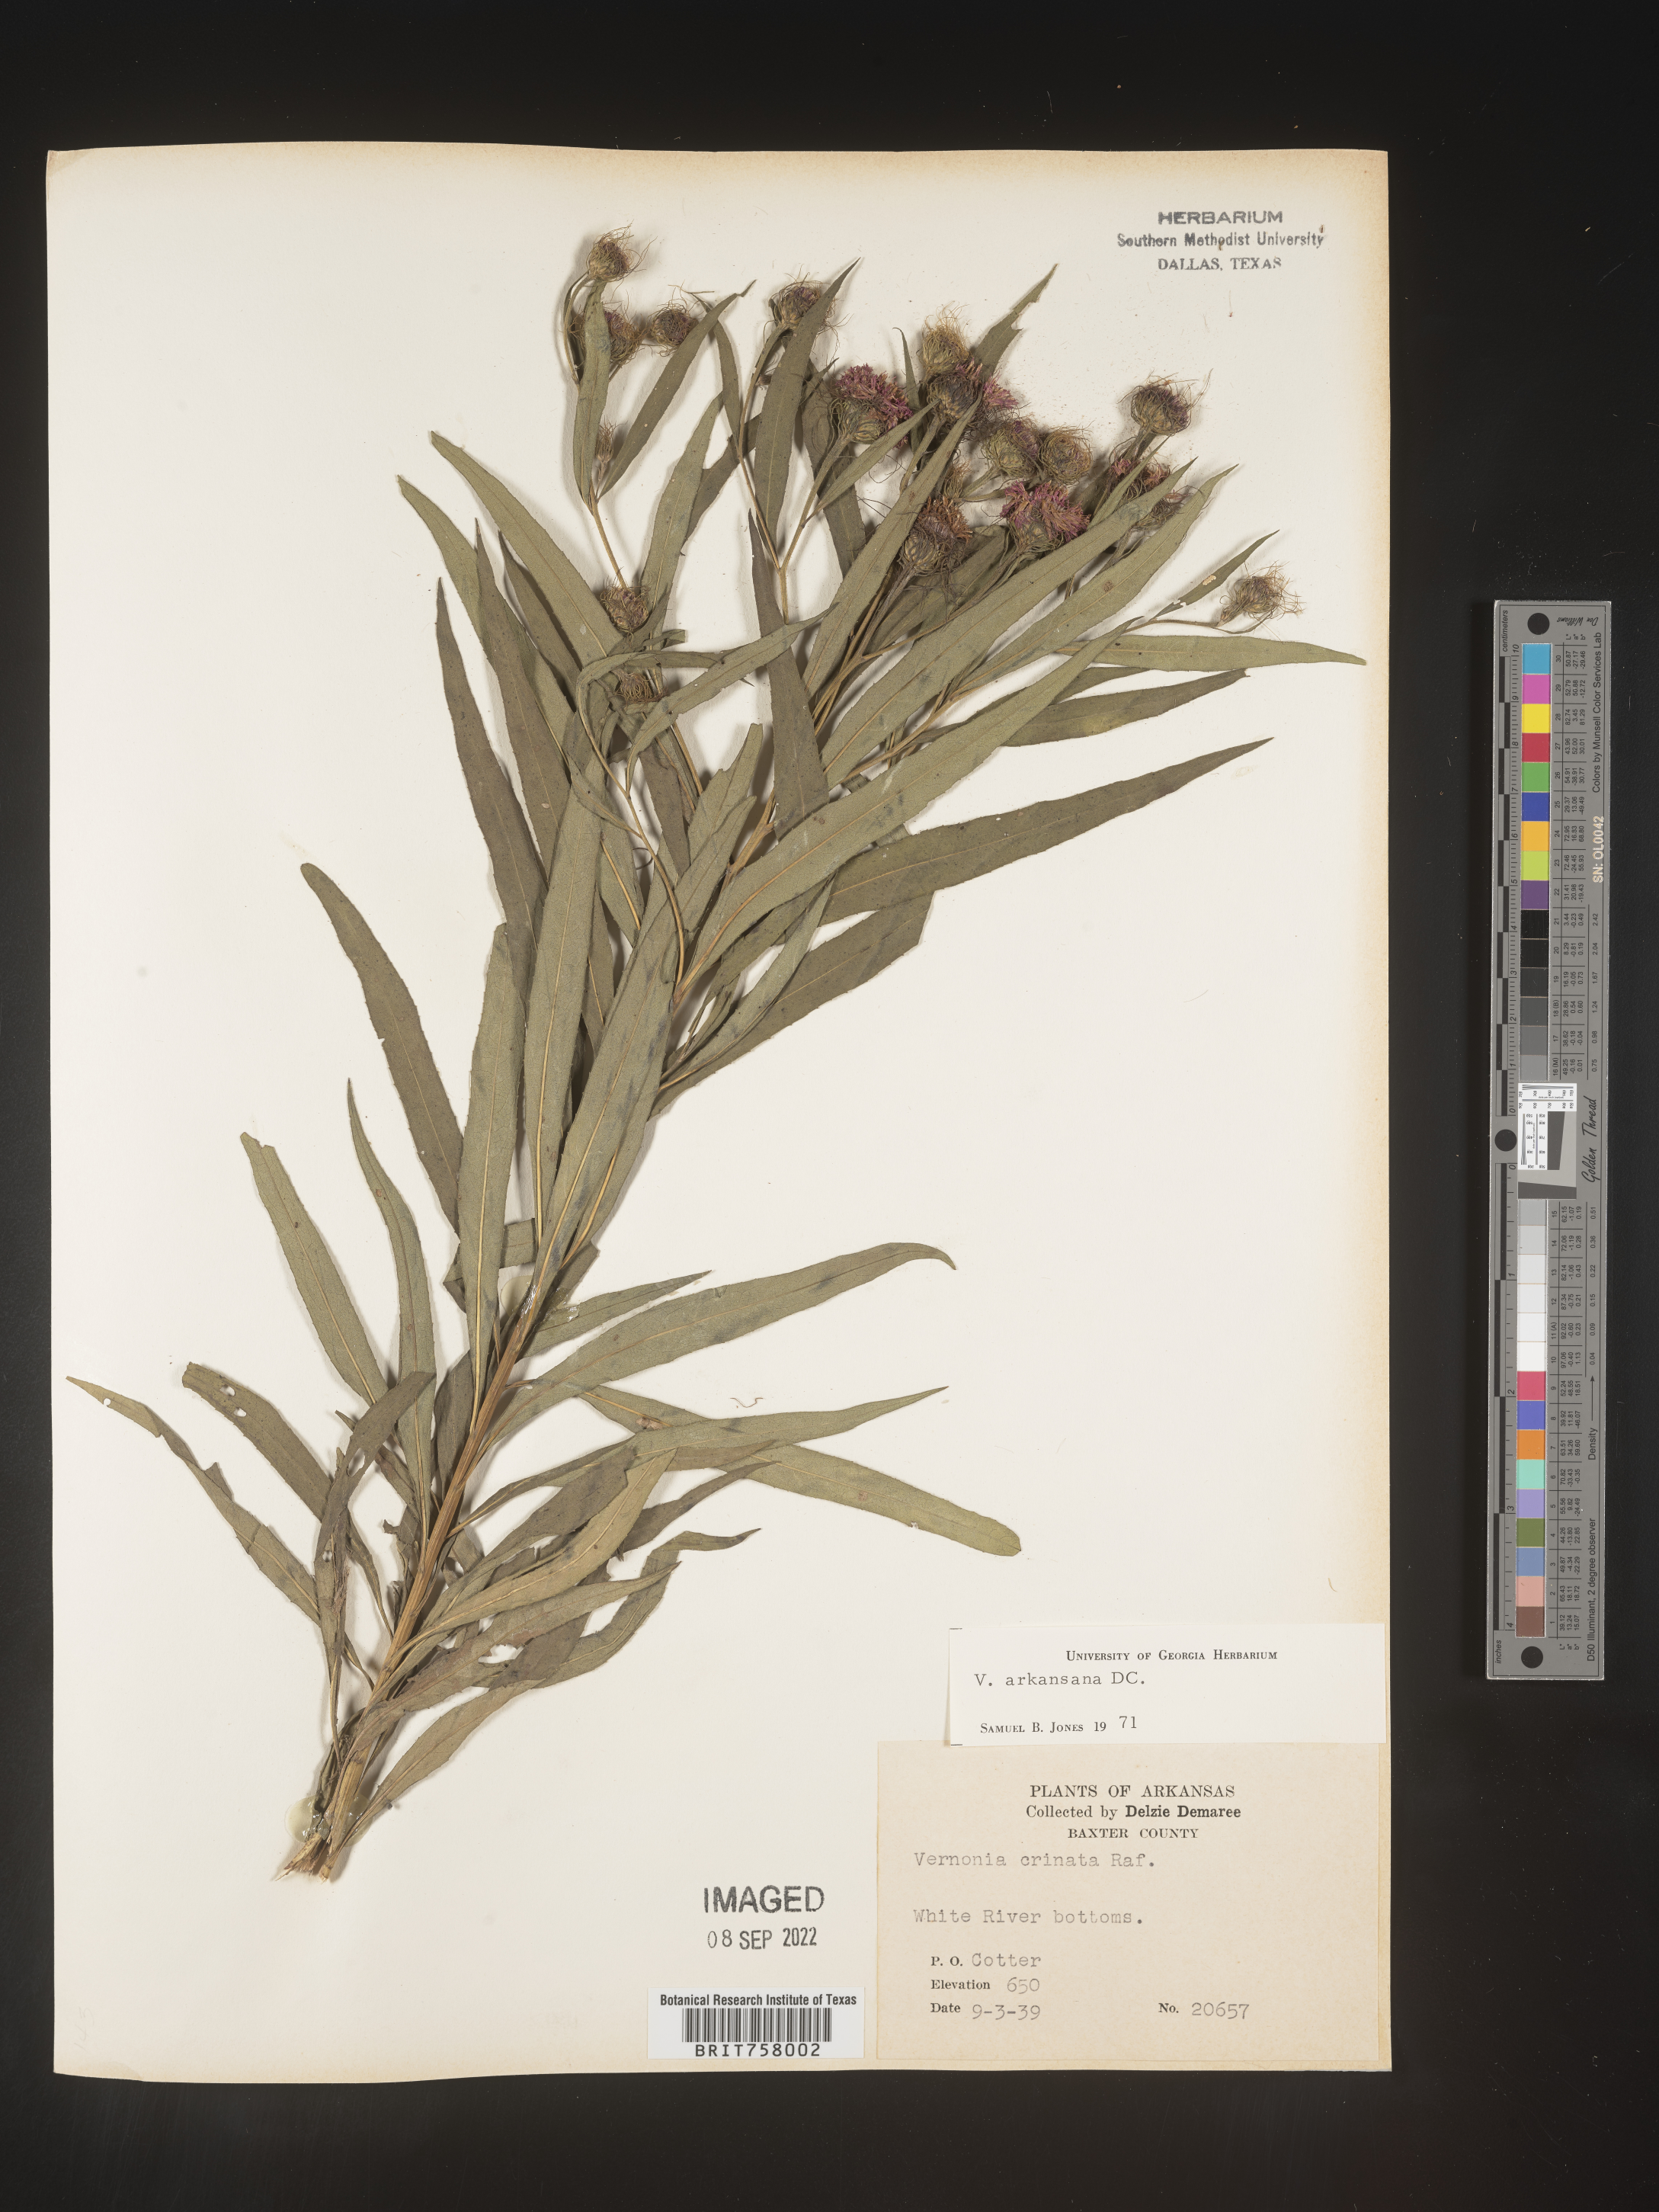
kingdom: Plantae
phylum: Tracheophyta
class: Magnoliopsida
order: Asterales
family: Asteraceae
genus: Vernonia
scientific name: Vernonia arkansana
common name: Ozark ironweed
